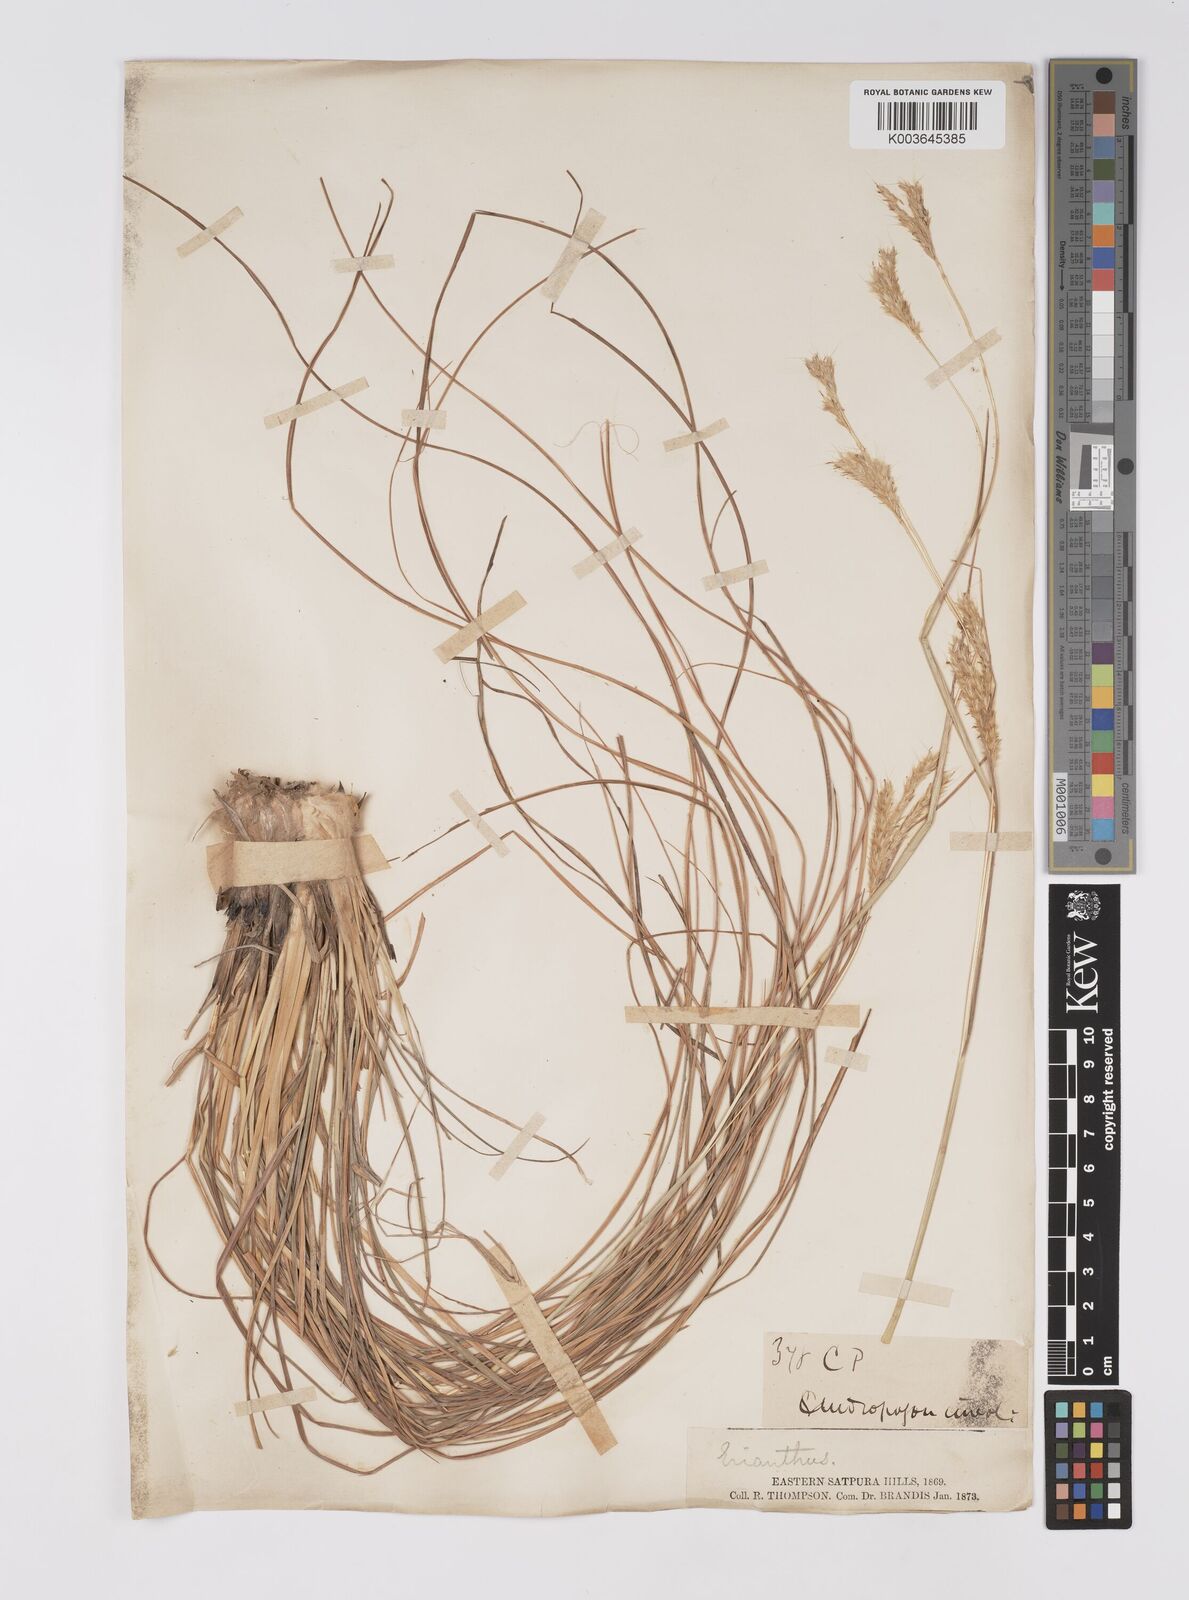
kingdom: Plantae
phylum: Tracheophyta
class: Liliopsida
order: Poales
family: Poaceae
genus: Eulaliopsis
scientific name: Eulaliopsis binata
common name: Baib grass
